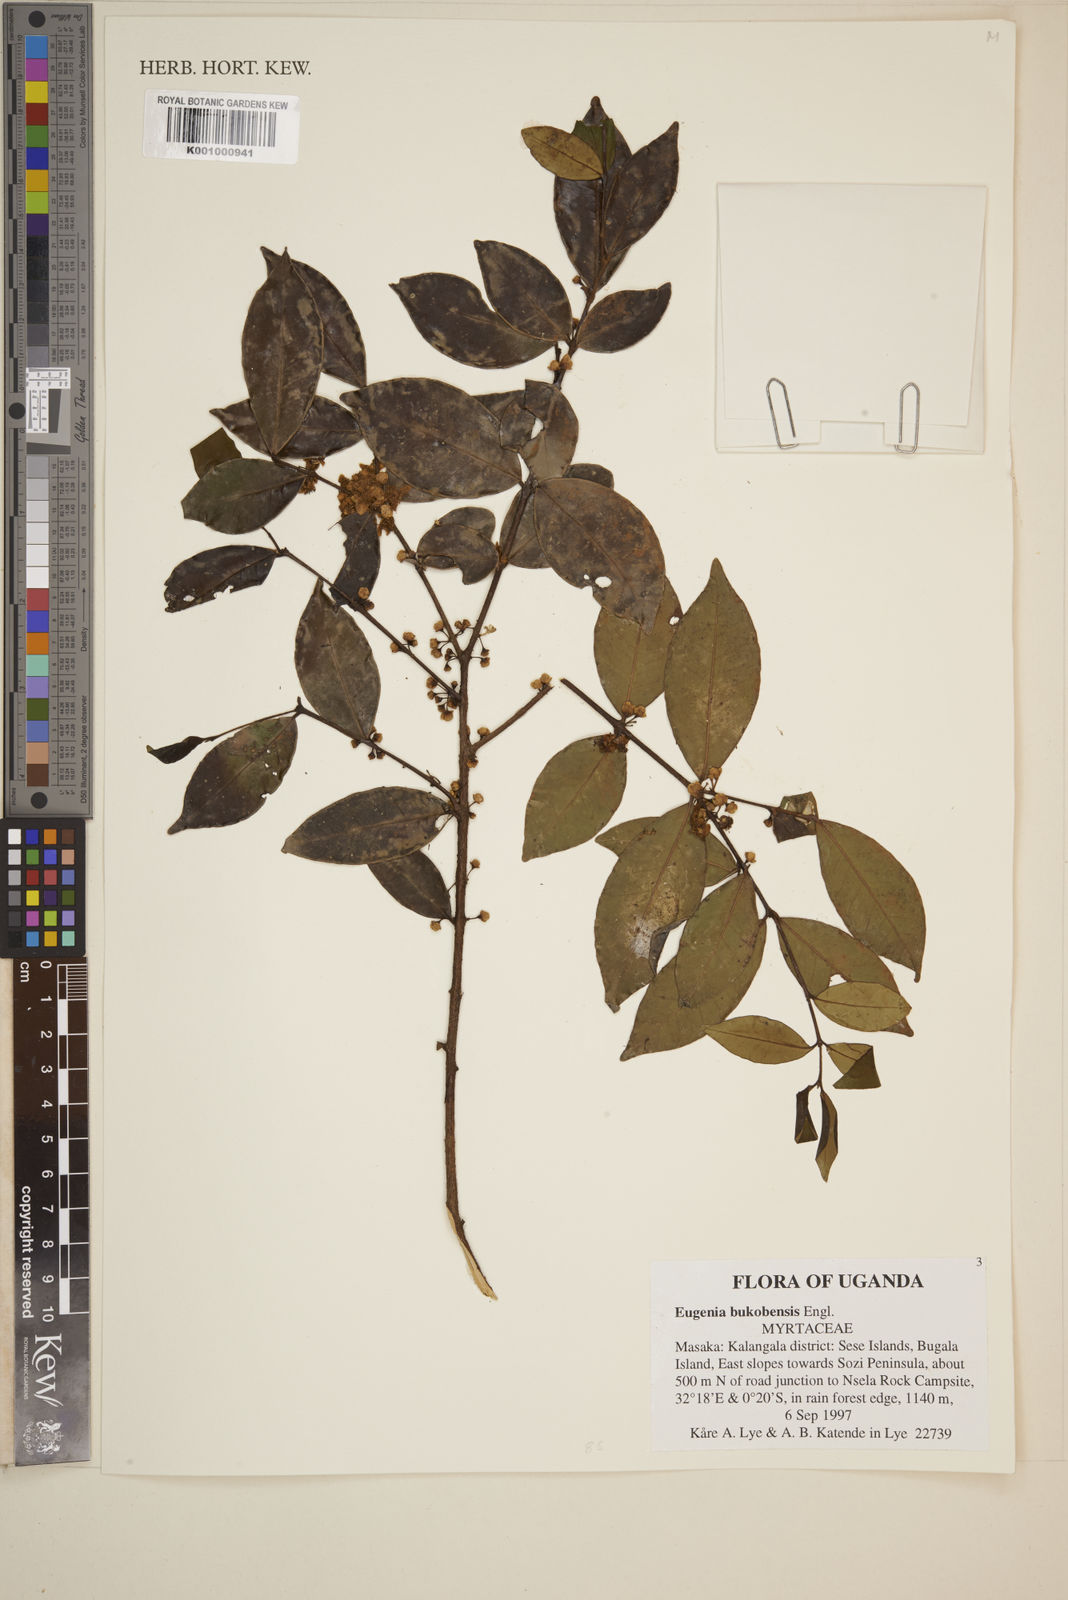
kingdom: Plantae
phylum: Tracheophyta
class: Magnoliopsida
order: Myrtales
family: Myrtaceae
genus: Eugenia
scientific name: Eugenia bukobensis
